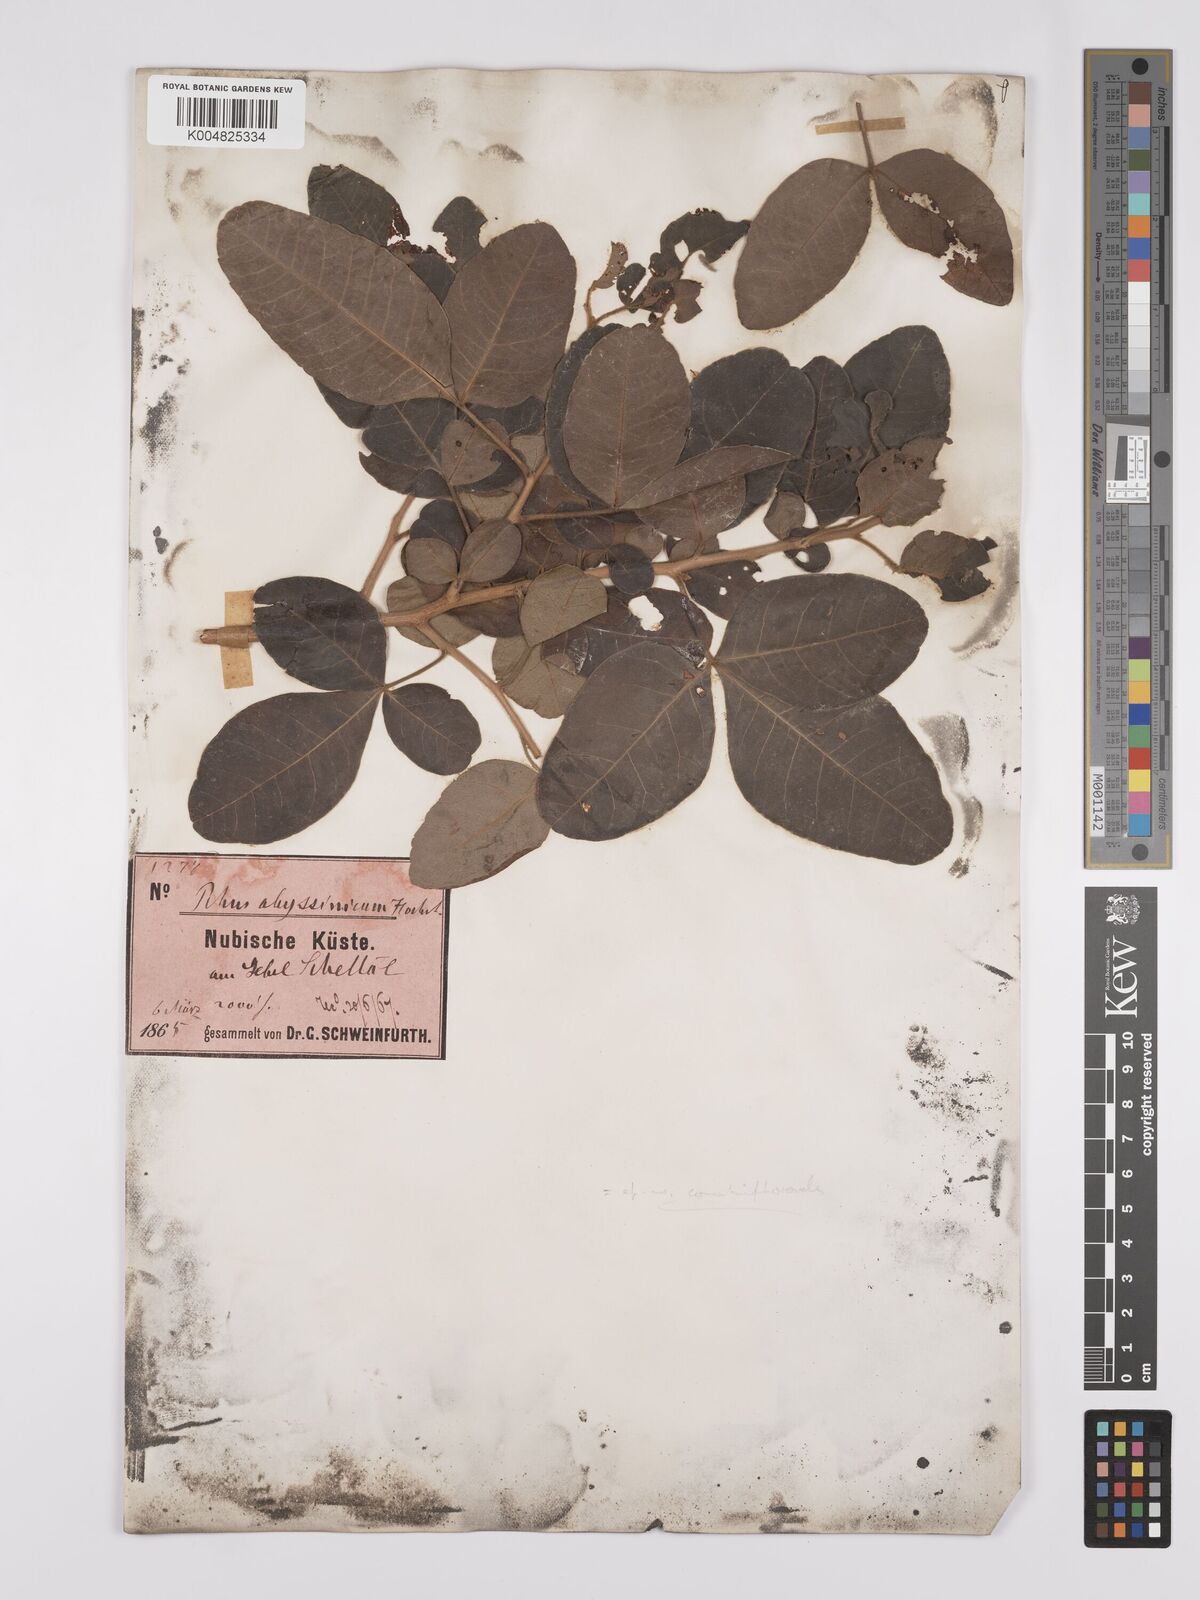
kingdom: Plantae
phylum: Tracheophyta
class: Magnoliopsida
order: Sapindales
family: Anacardiaceae
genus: Searsia
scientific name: Searsia flexicaulis
